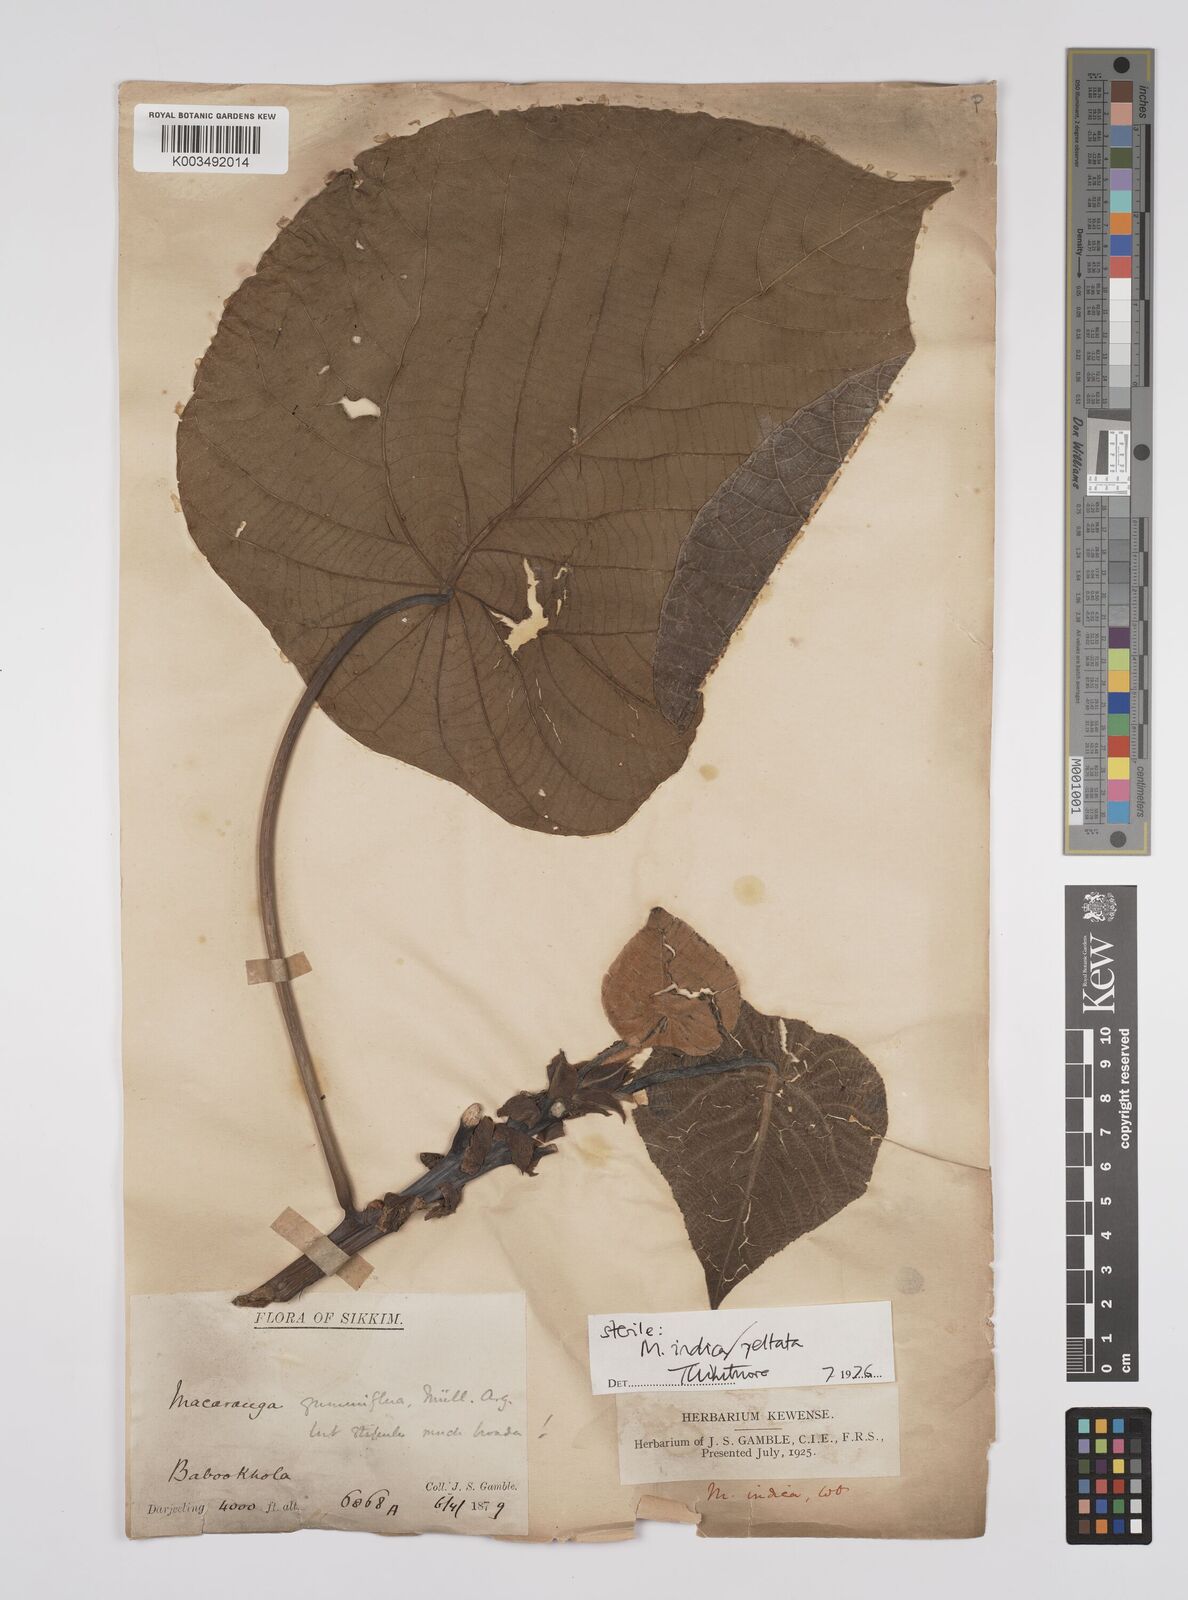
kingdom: Plantae
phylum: Tracheophyta
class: Magnoliopsida
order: Malpighiales
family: Euphorbiaceae
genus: Macaranga
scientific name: Macaranga indica
